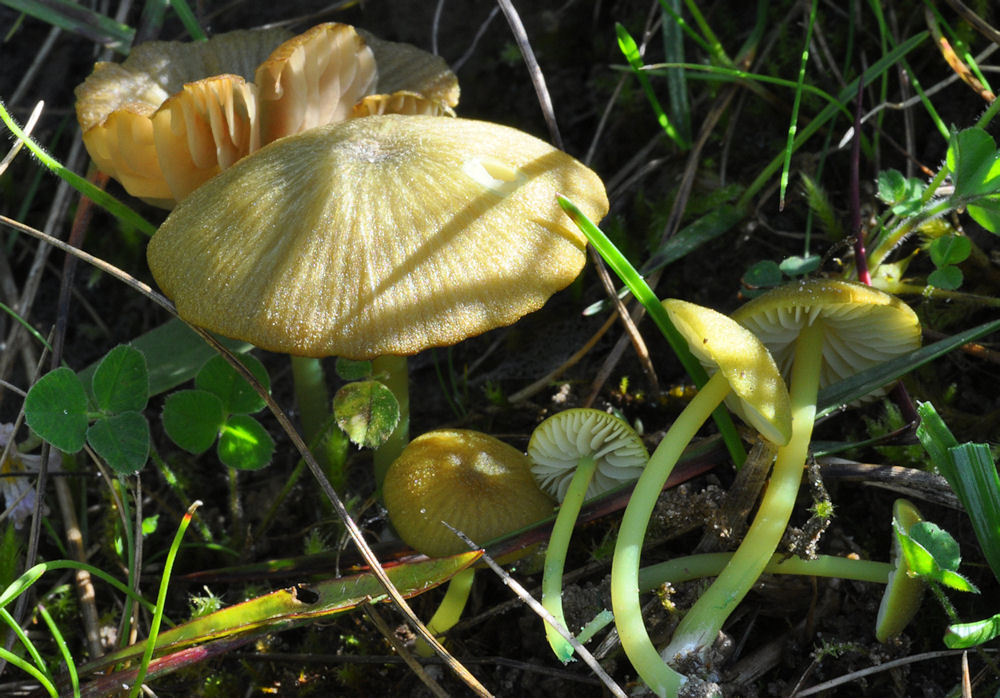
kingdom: Fungi
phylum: Basidiomycota
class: Agaricomycetes
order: Agaricales
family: Entolomataceae
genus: Entoloma
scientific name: Entoloma incanum
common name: grøngul rødblad
